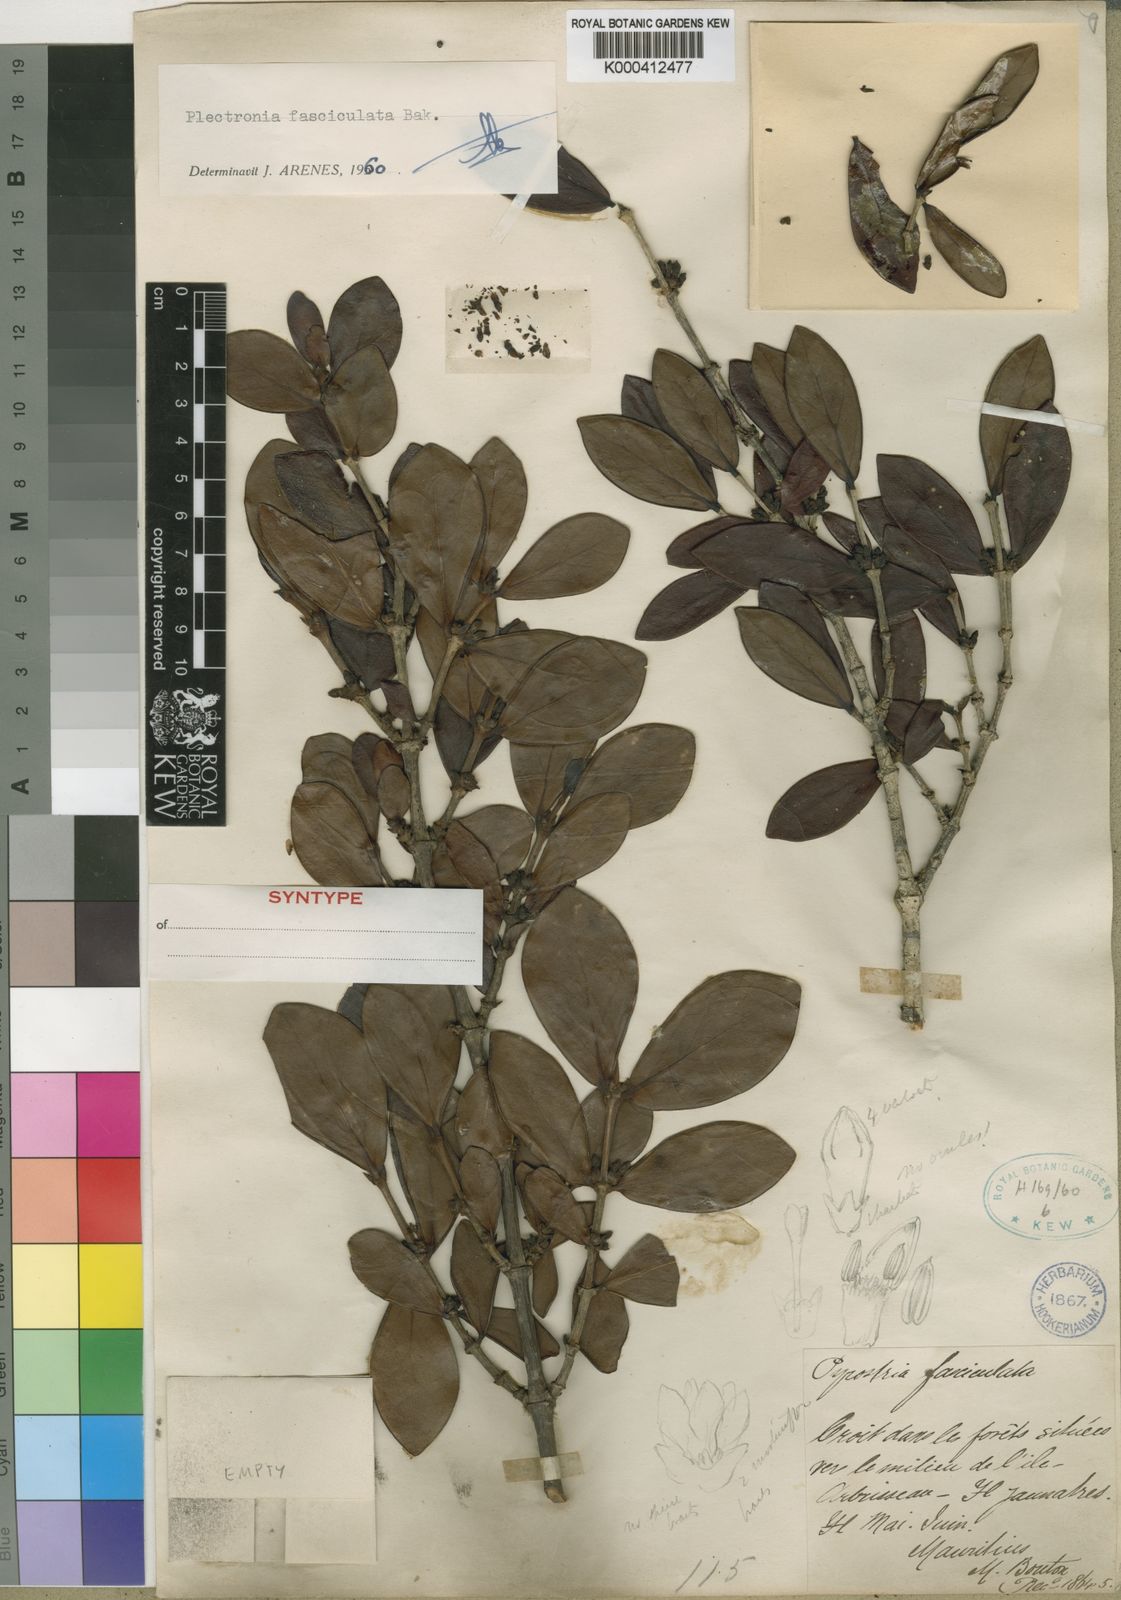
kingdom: Plantae
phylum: Tracheophyta
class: Magnoliopsida
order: Gentianales
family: Rubiaceae
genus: Pyrostria
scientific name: Pyrostria fasciculata
